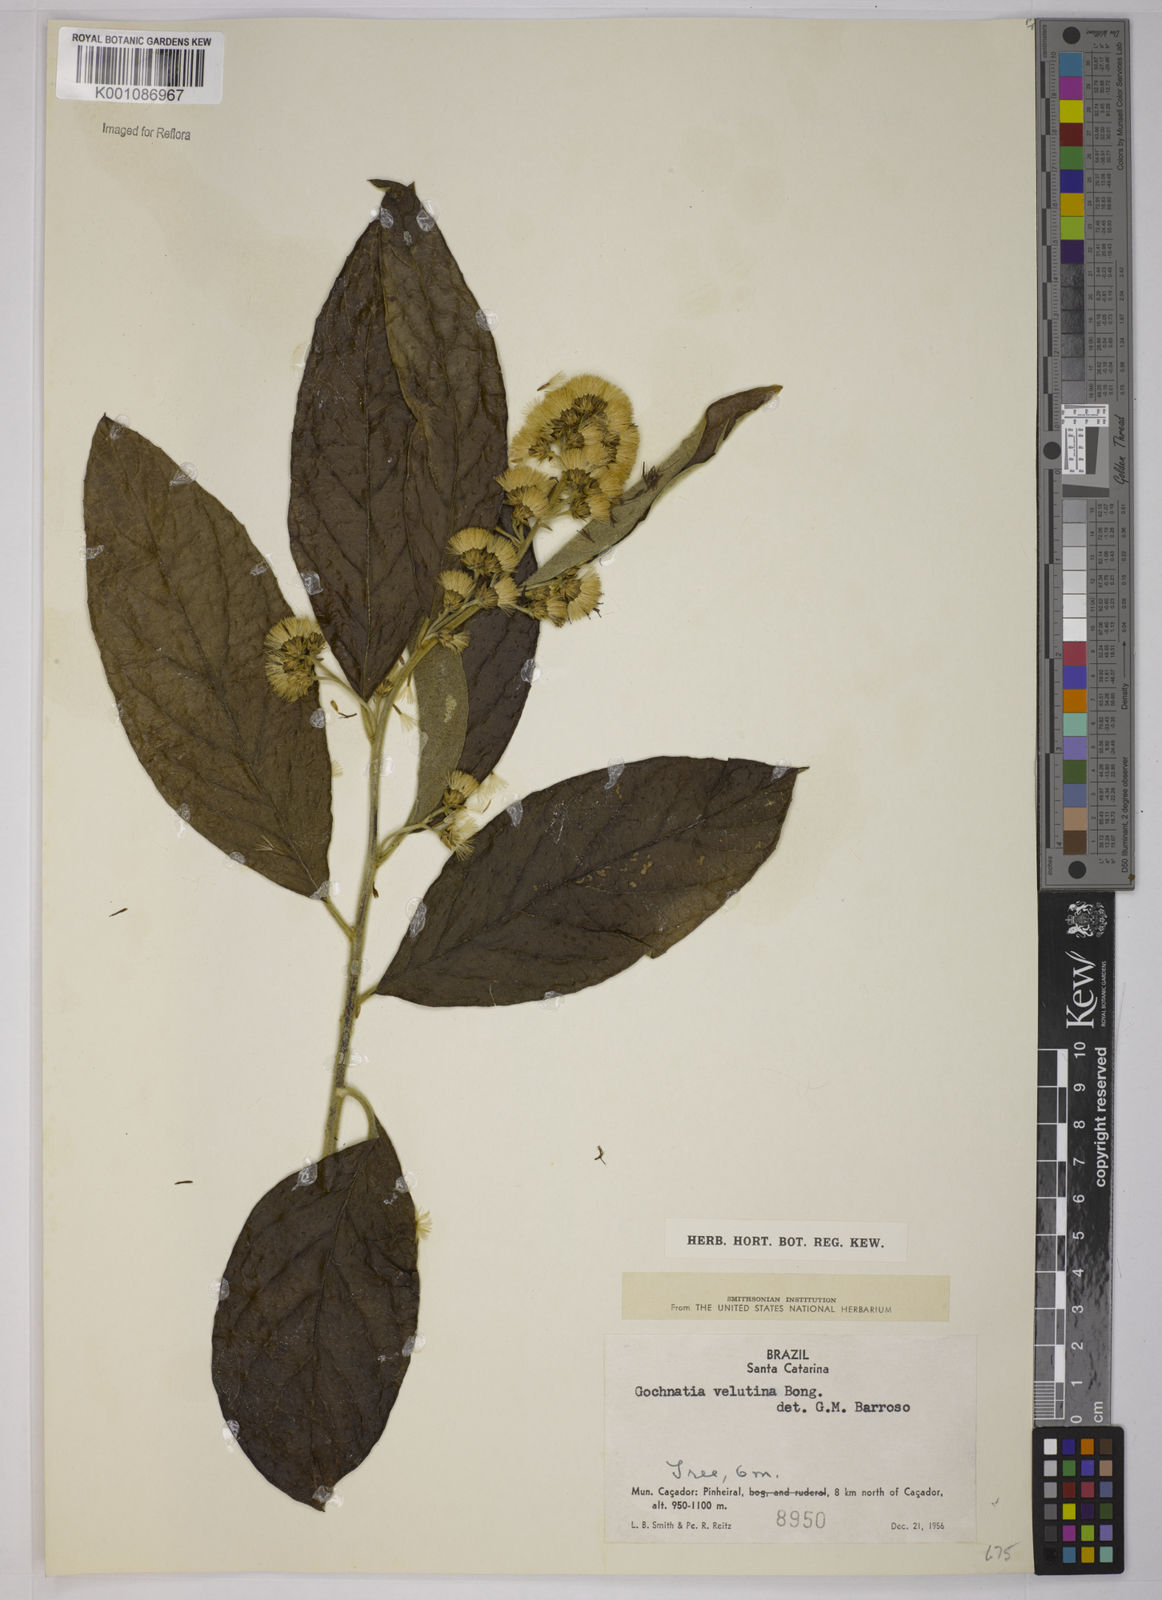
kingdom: Plantae
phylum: Tracheophyta
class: Magnoliopsida
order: Asterales
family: Asteraceae
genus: Moquiniastrum
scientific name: Moquiniastrum polymorphum
